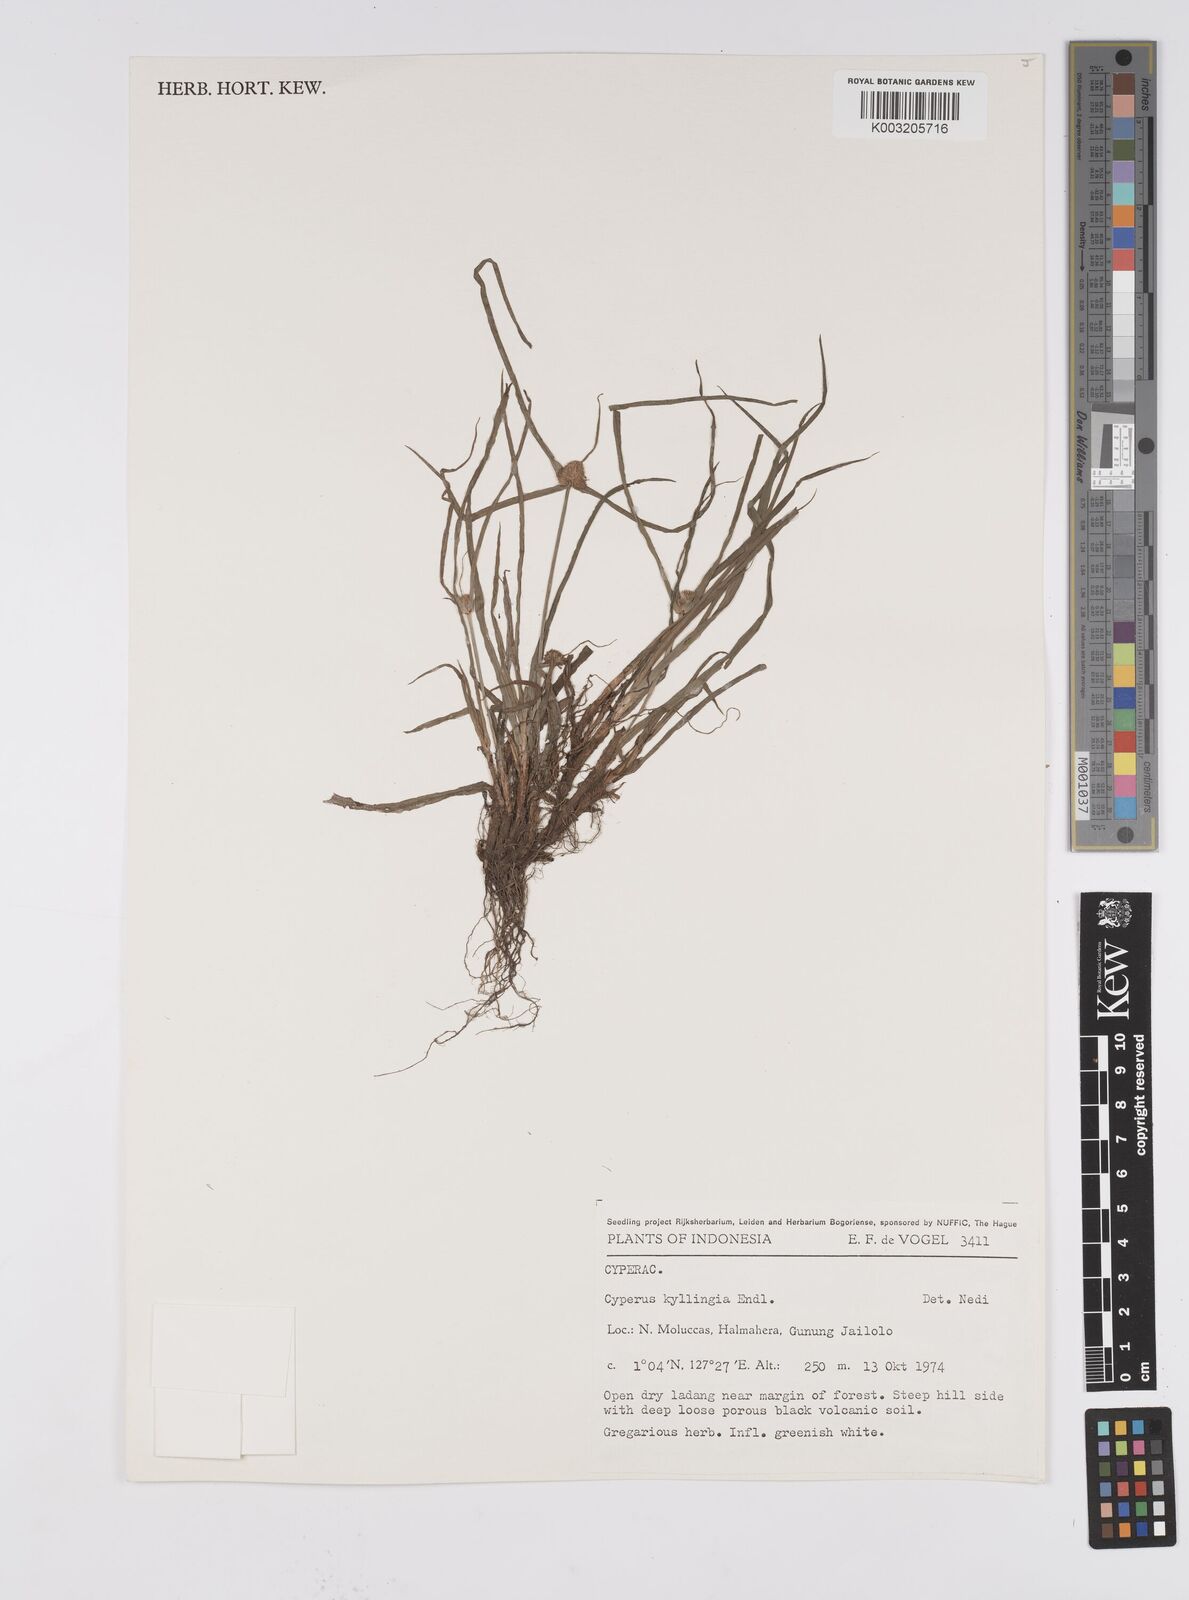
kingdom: Plantae
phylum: Tracheophyta
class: Liliopsida
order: Poales
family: Cyperaceae
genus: Cyperus
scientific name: Cyperus nemoralis
